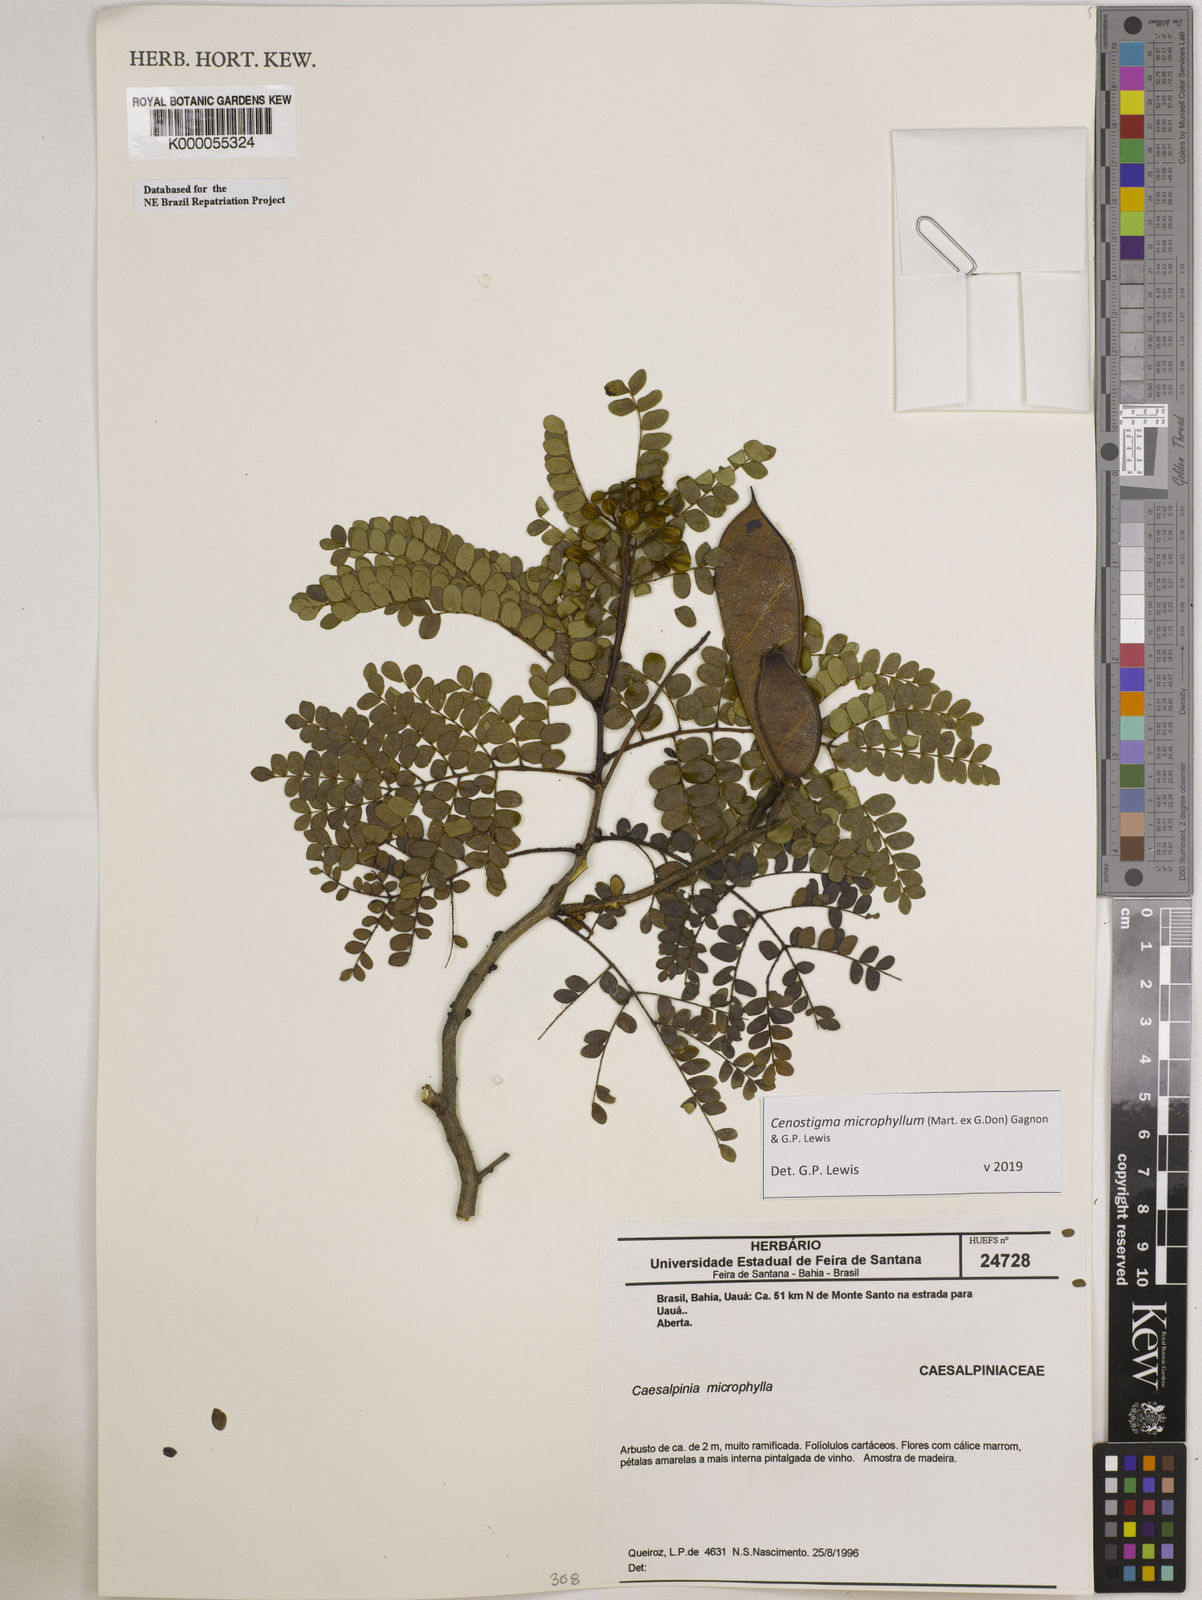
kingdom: Plantae
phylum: Tracheophyta
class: Magnoliopsida
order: Fabales
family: Fabaceae
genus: Cenostigma
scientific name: Cenostigma microphyllum
